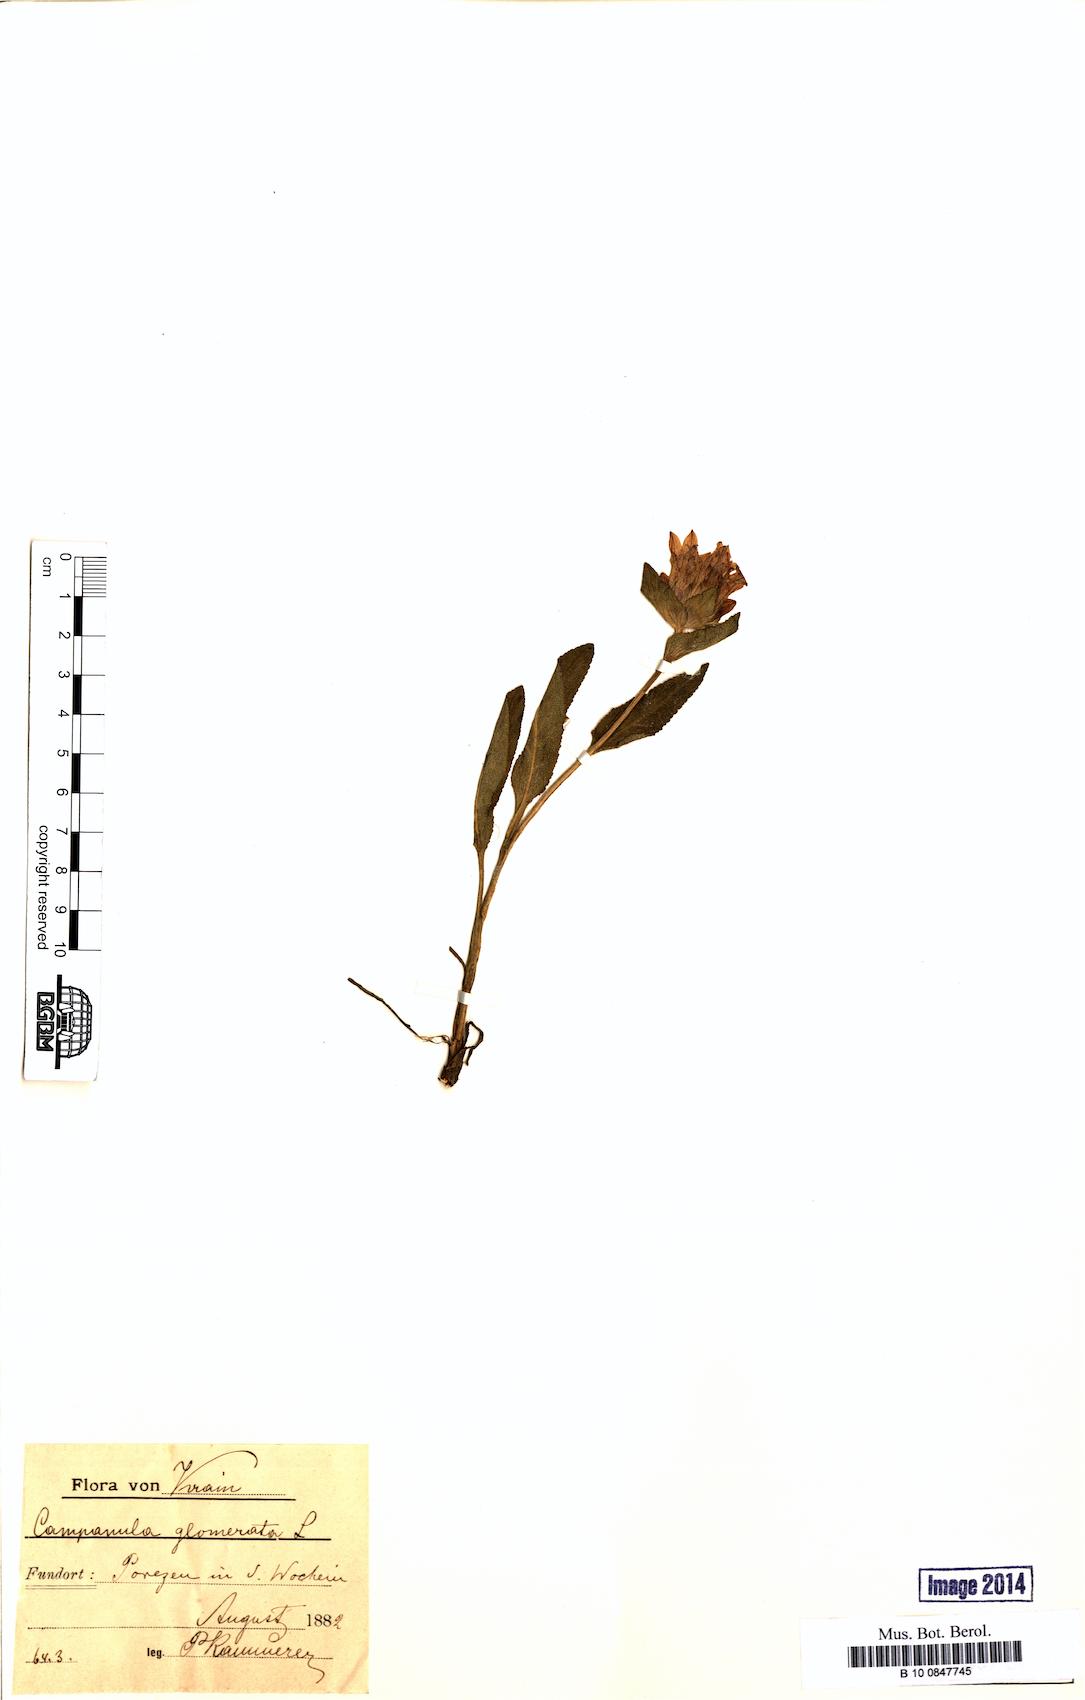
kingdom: Plantae
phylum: Tracheophyta
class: Magnoliopsida
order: Asterales
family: Campanulaceae
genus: Campanula
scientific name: Campanula glomerata
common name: Clustered bellflower
